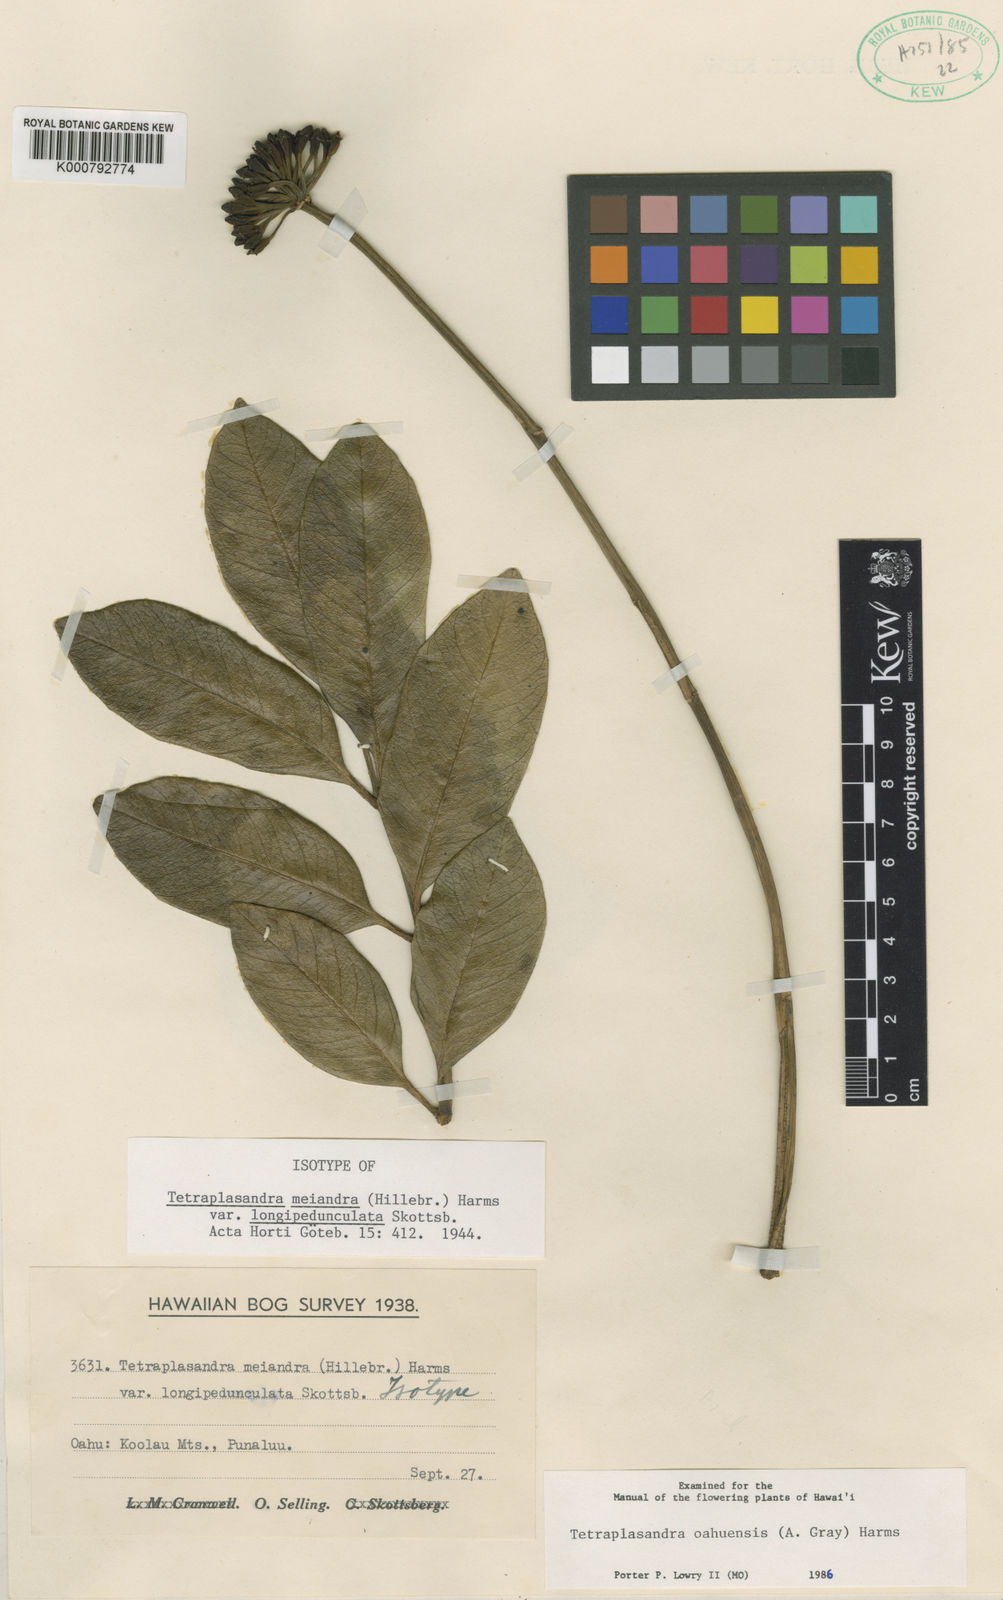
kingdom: Plantae
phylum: Tracheophyta
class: Magnoliopsida
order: Apiales
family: Araliaceae
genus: Polyscias
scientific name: Polyscias oahuensis
